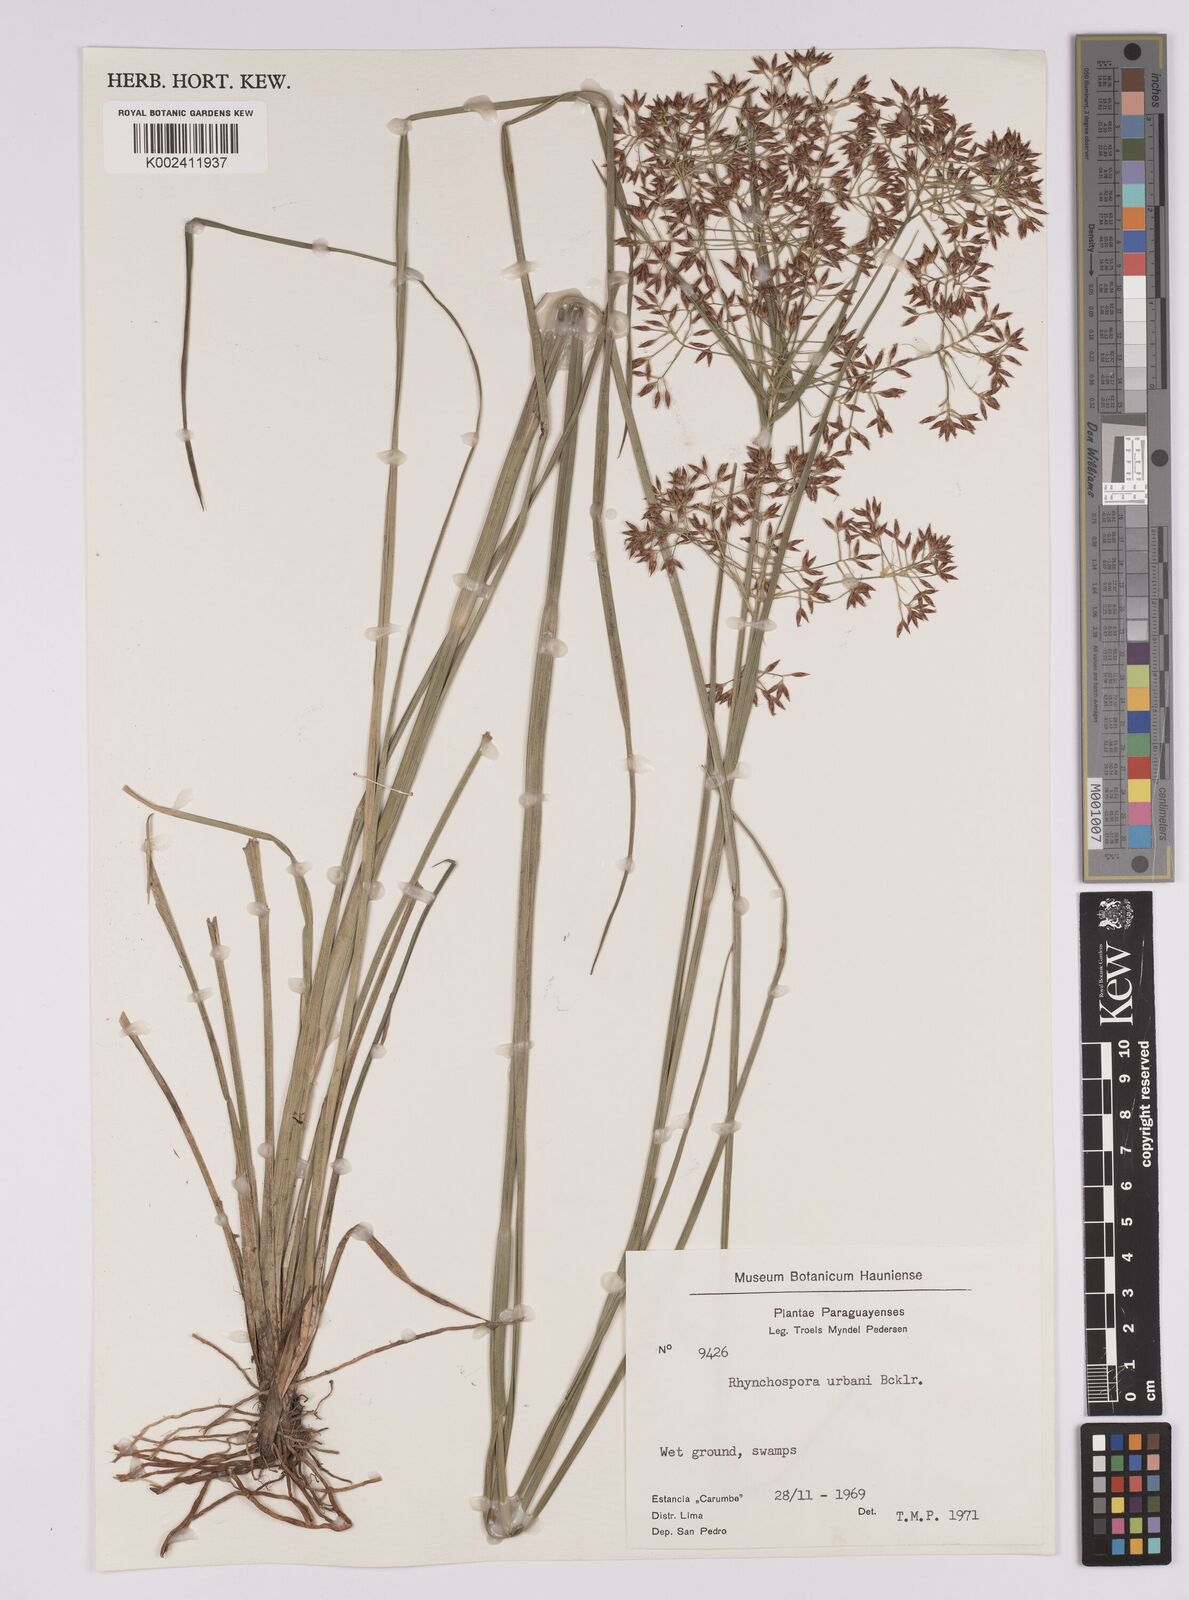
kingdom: Plantae
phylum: Tracheophyta
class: Liliopsida
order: Poales
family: Cyperaceae
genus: Rhynchospora
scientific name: Rhynchospora urbanii
